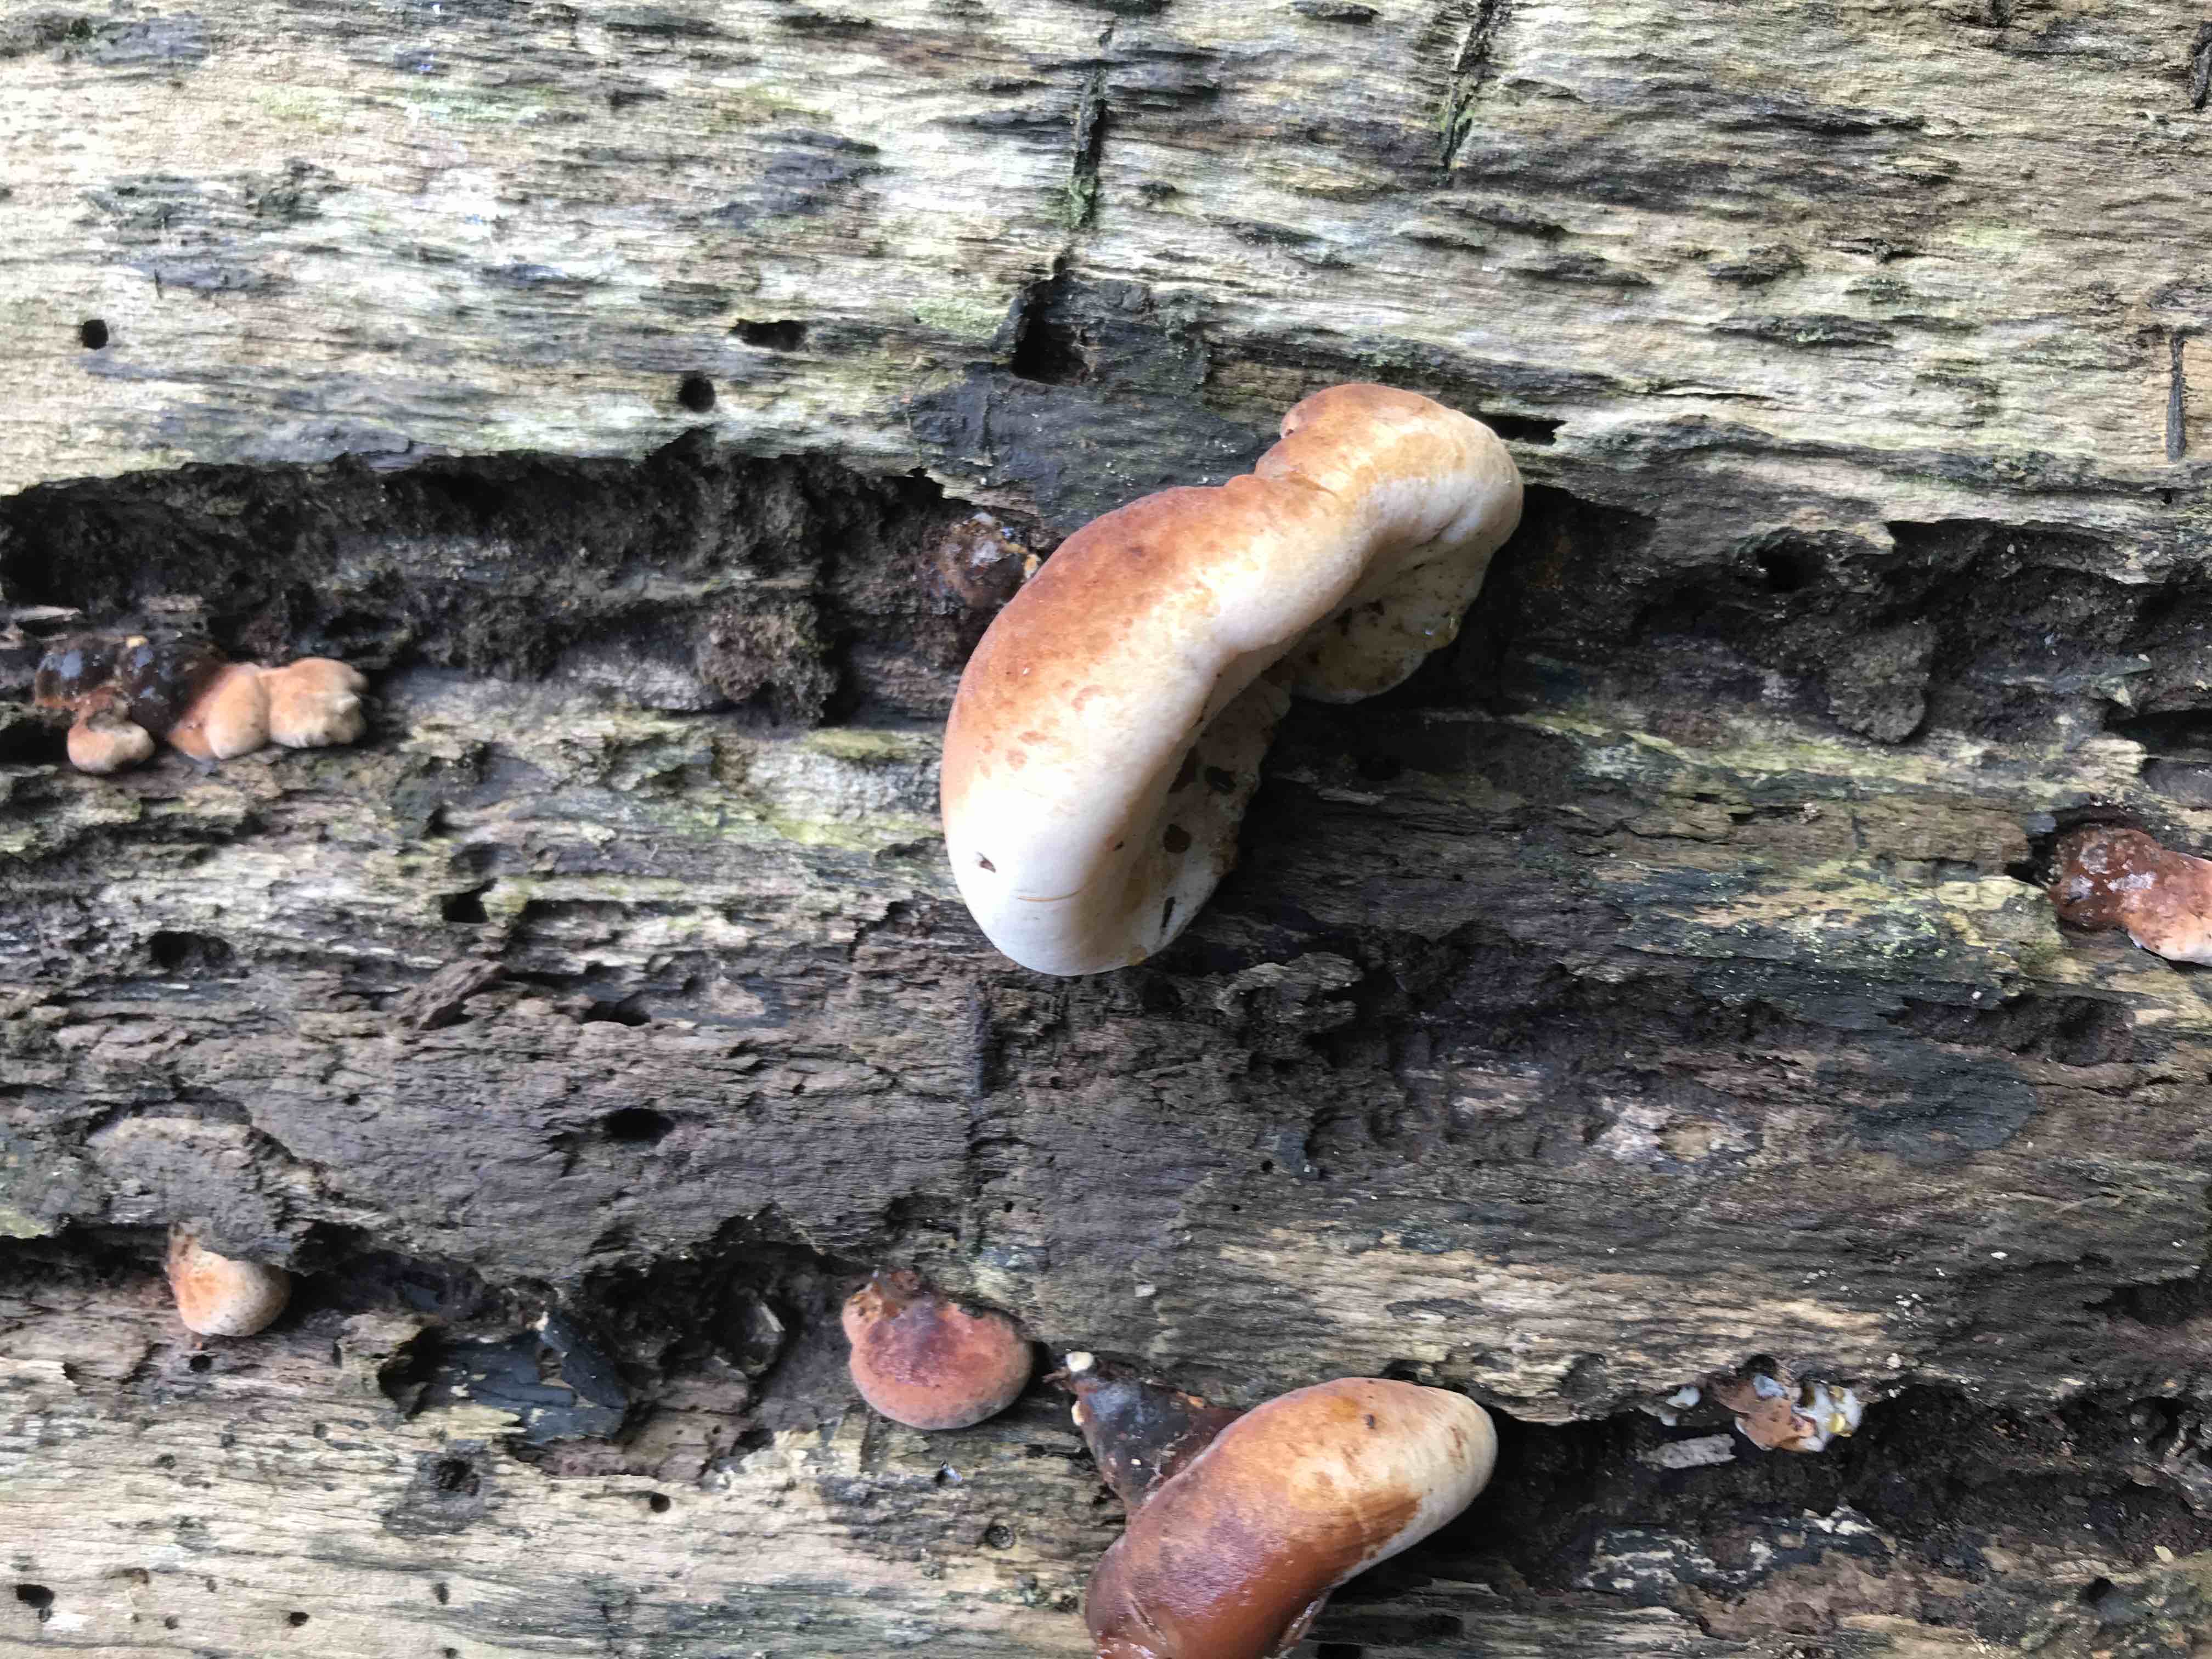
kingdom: Fungi
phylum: Basidiomycota
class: Agaricomycetes
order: Polyporales
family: Ischnodermataceae
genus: Ischnoderma
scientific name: Ischnoderma resinosum
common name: løv-tjæreporesvamp
